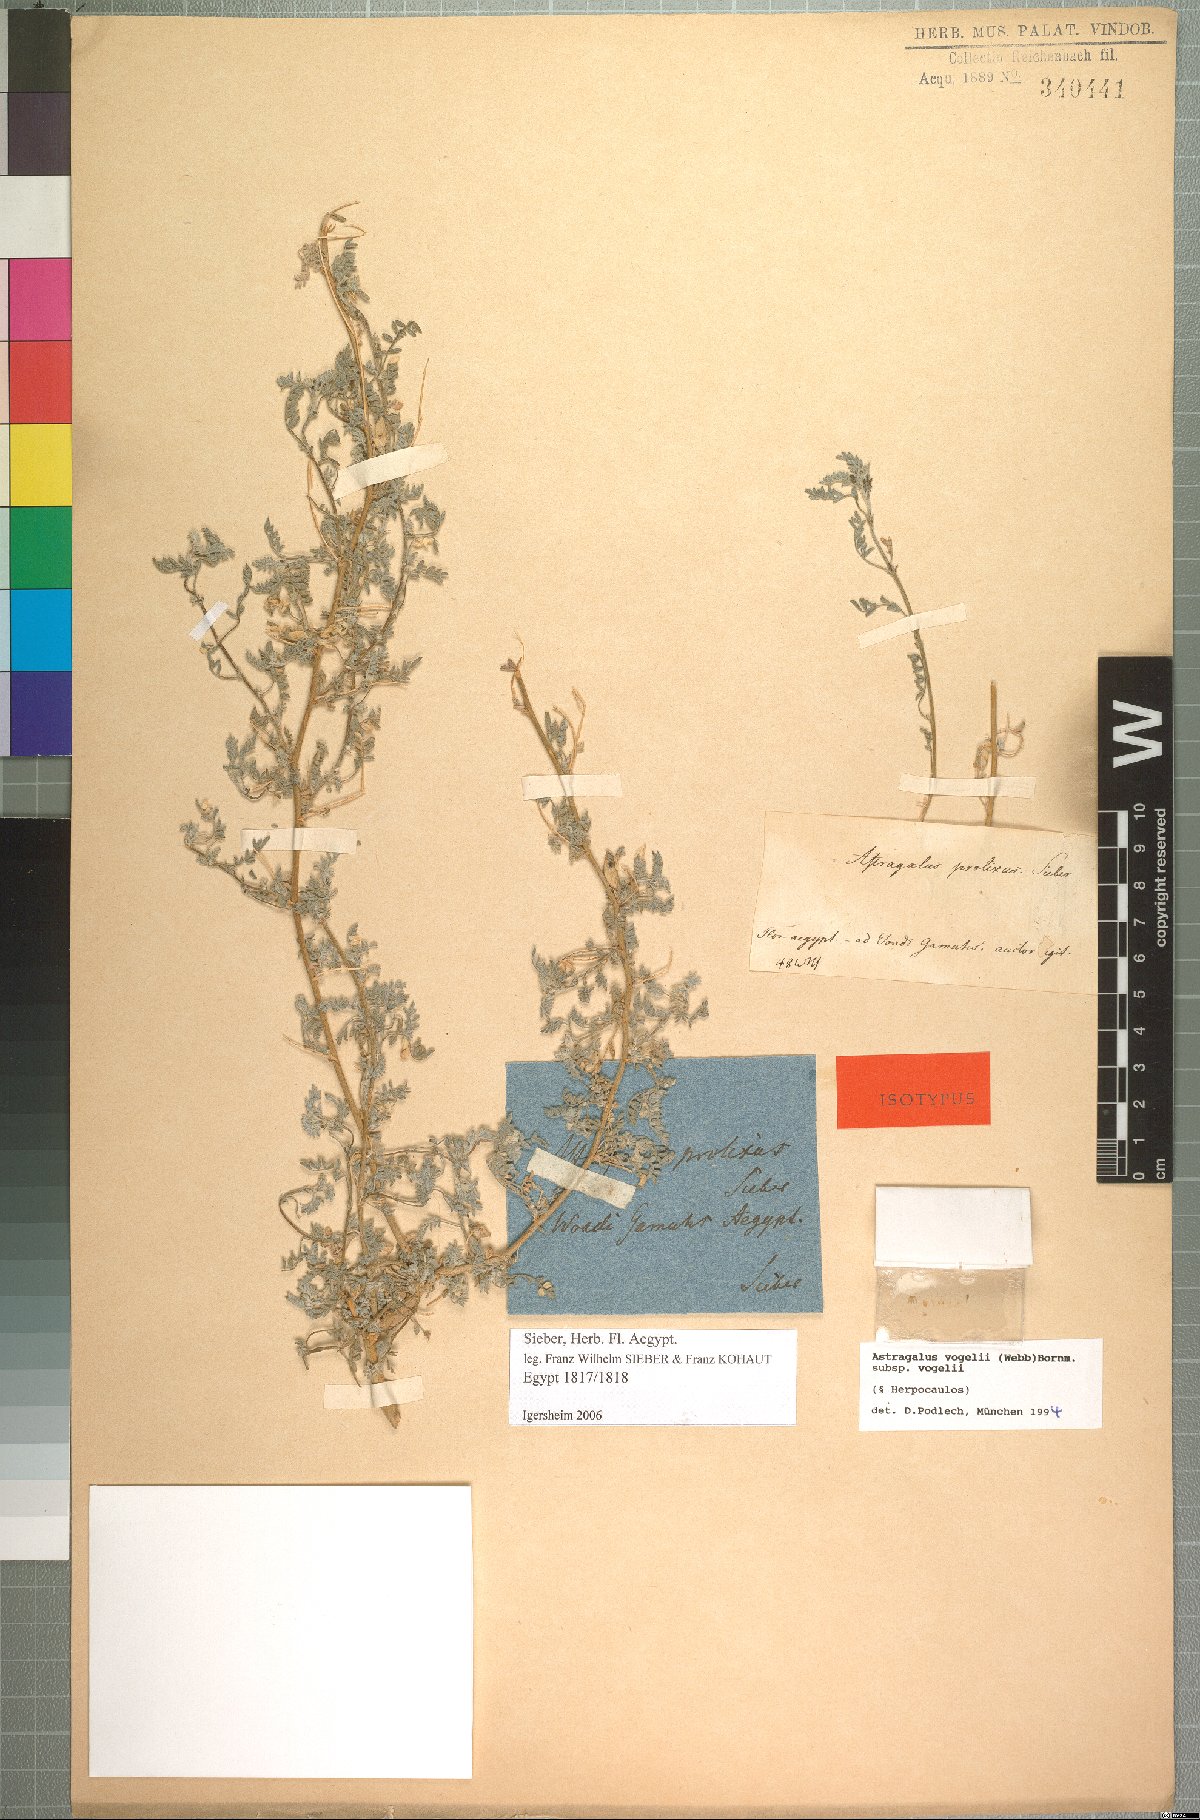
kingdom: Plantae
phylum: Tracheophyta
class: Magnoliopsida
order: Fabales
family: Fabaceae
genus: Astragalus
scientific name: Astragalus vogelii
